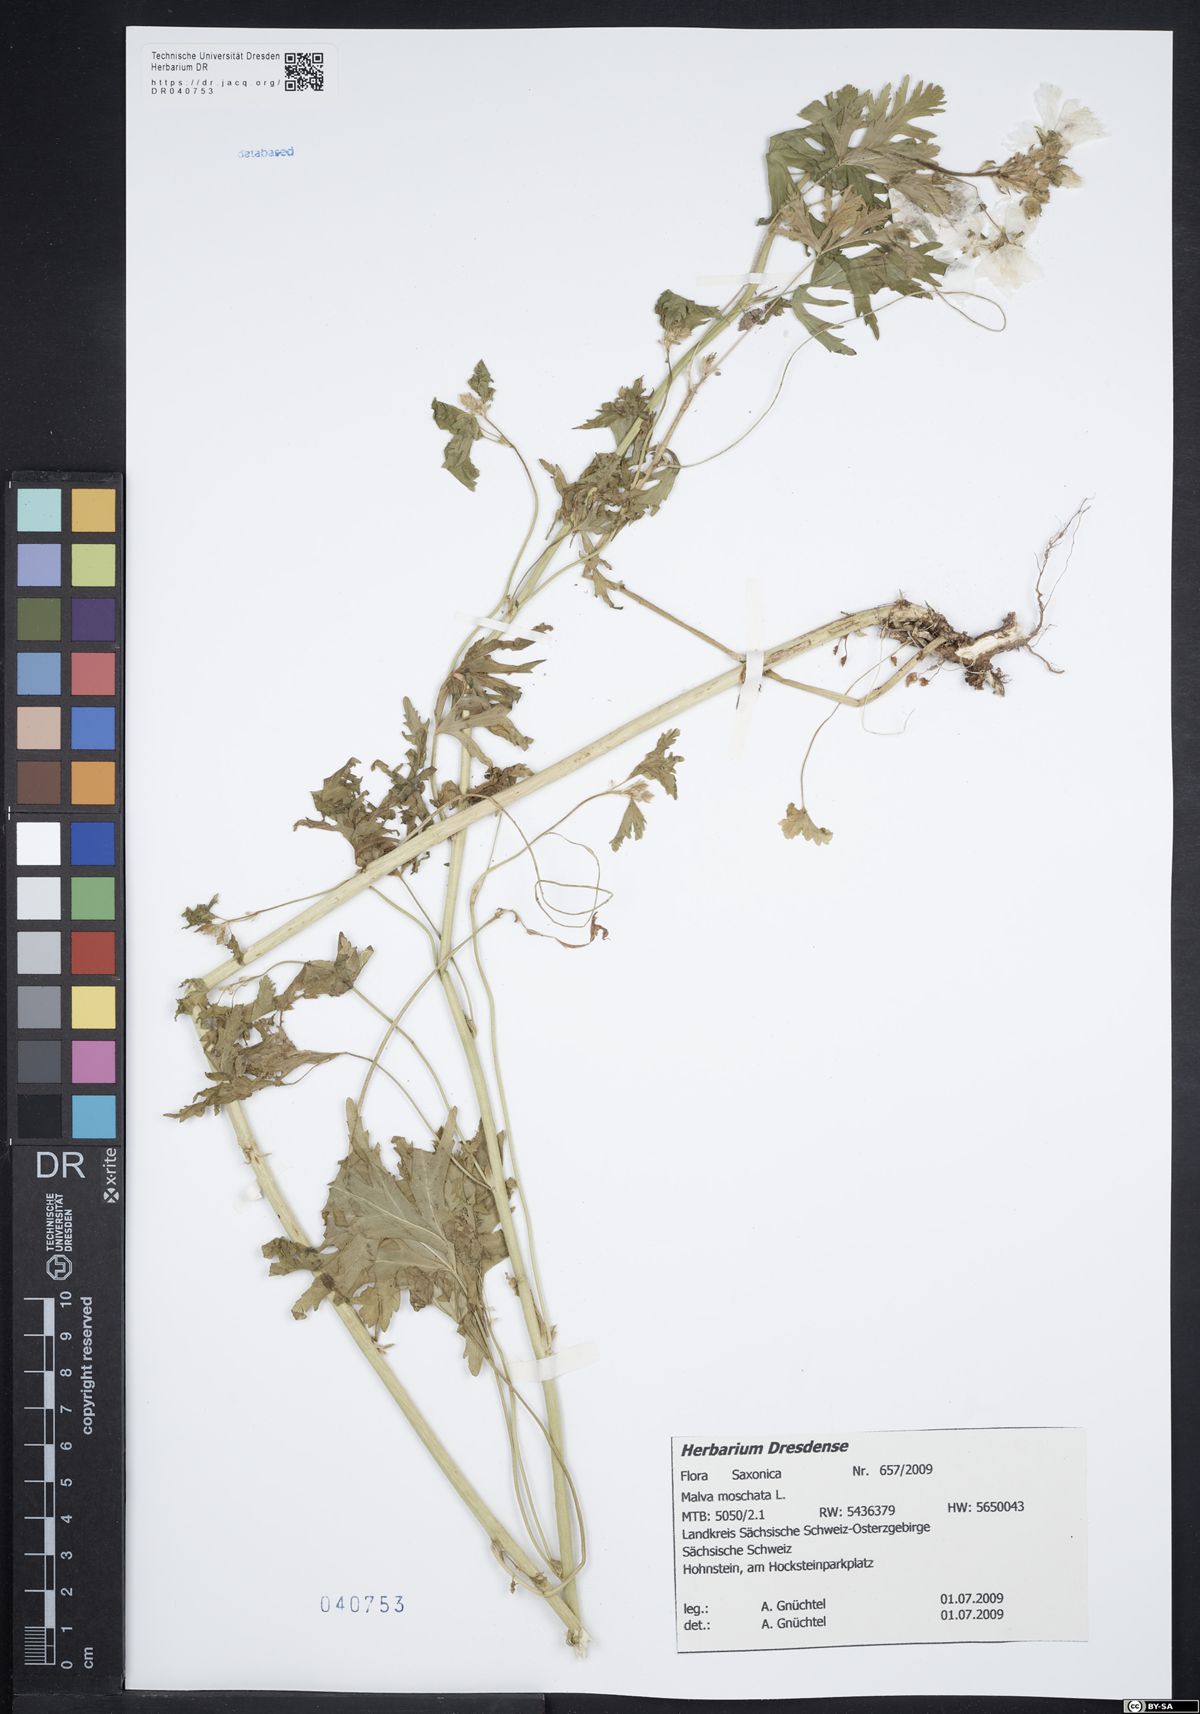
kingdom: Plantae
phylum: Tracheophyta
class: Magnoliopsida
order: Malvales
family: Malvaceae
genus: Malva
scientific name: Malva moschata
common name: Musk mallow
